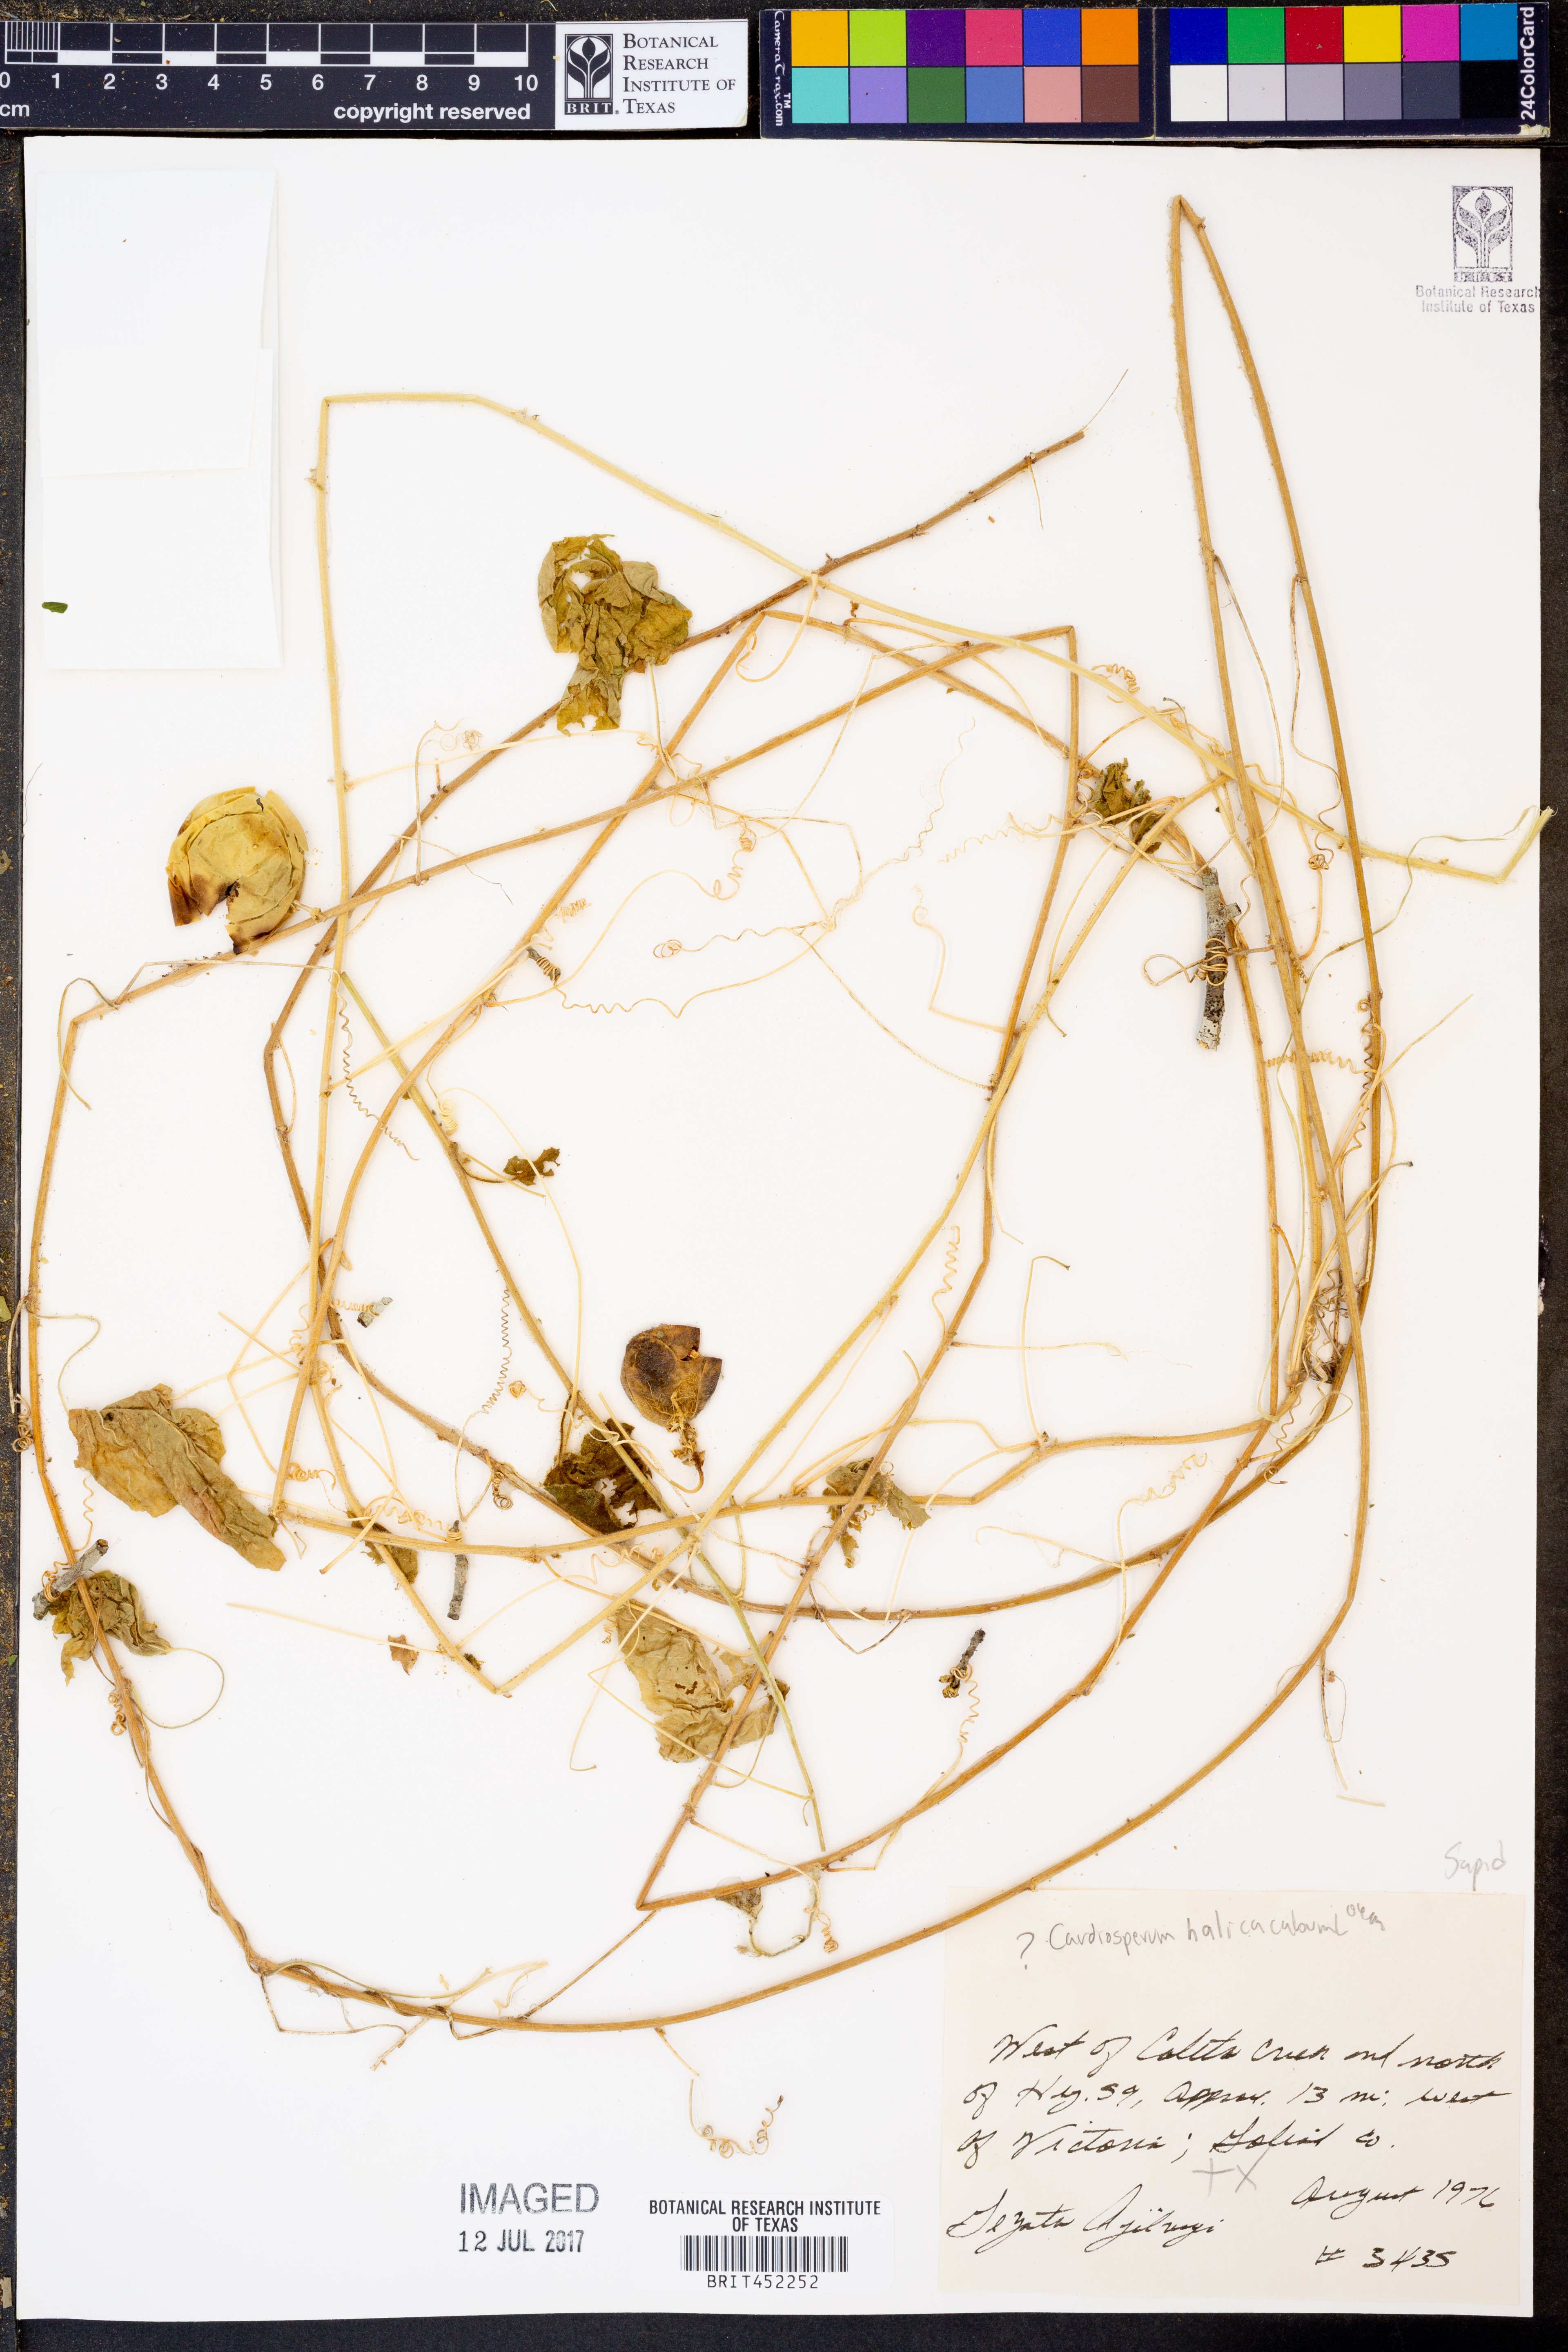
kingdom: Plantae
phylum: Tracheophyta
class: Magnoliopsida
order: Sapindales
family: Sapindaceae
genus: Cardiospermum
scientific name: Cardiospermum halicacabum
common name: Balloon vine
